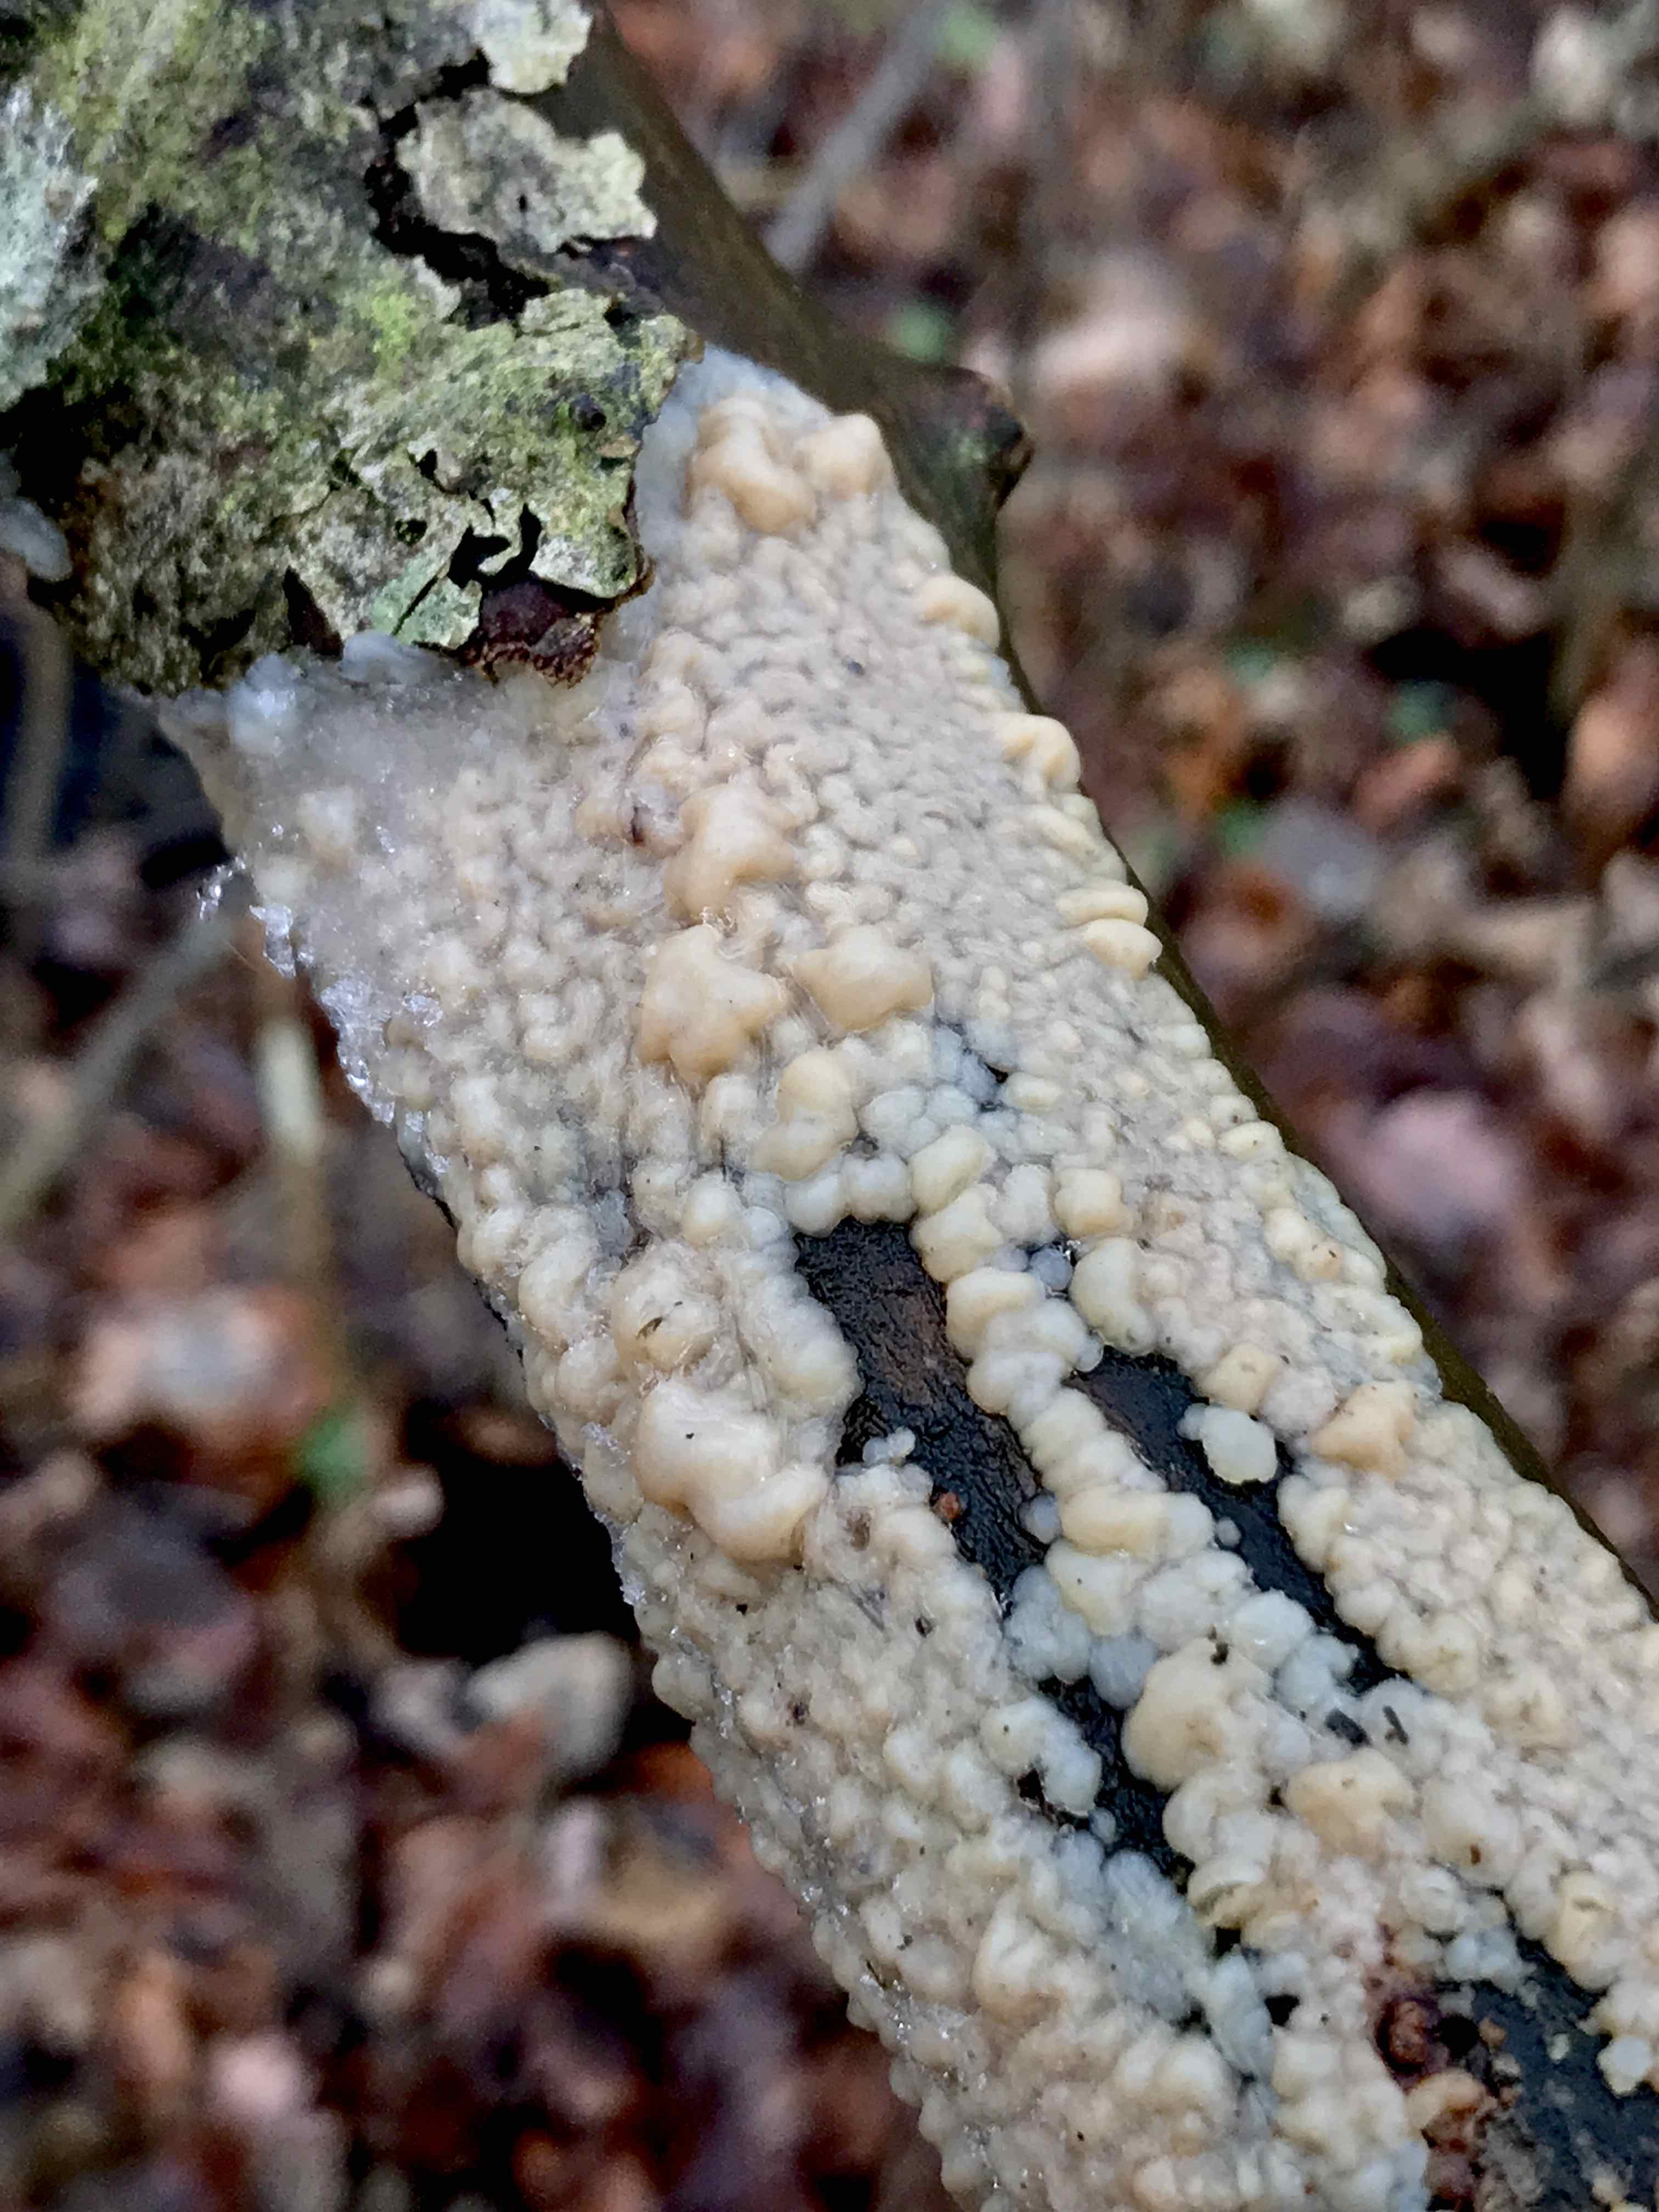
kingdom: Fungi
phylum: Basidiomycota
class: Agaricomycetes
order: Auriculariales
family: Auriculariaceae
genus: Exidia
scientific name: Exidia thuretiana
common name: hvidlig bævretop
